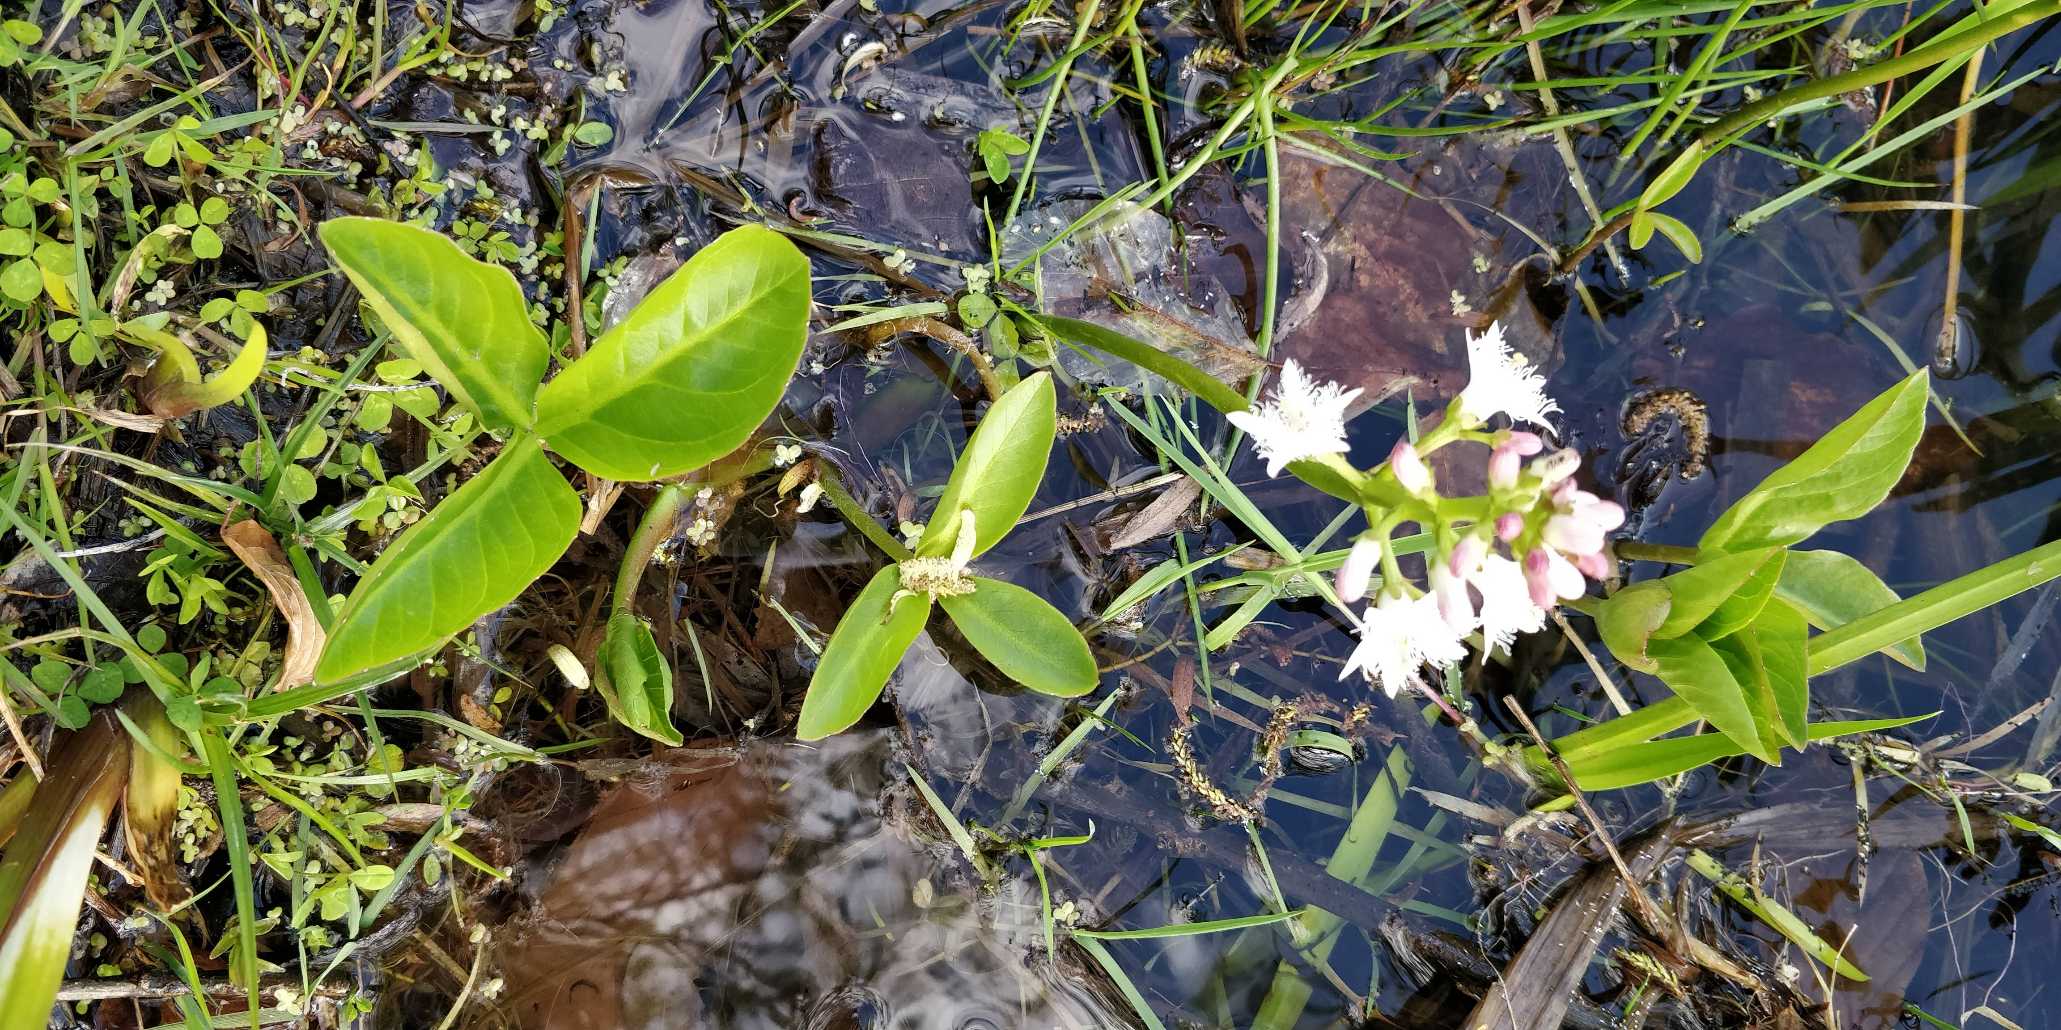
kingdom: Plantae
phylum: Tracheophyta
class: Magnoliopsida
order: Asterales
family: Menyanthaceae
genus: Menyanthes
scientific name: Menyanthes trifoliata
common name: Bukkeblad
